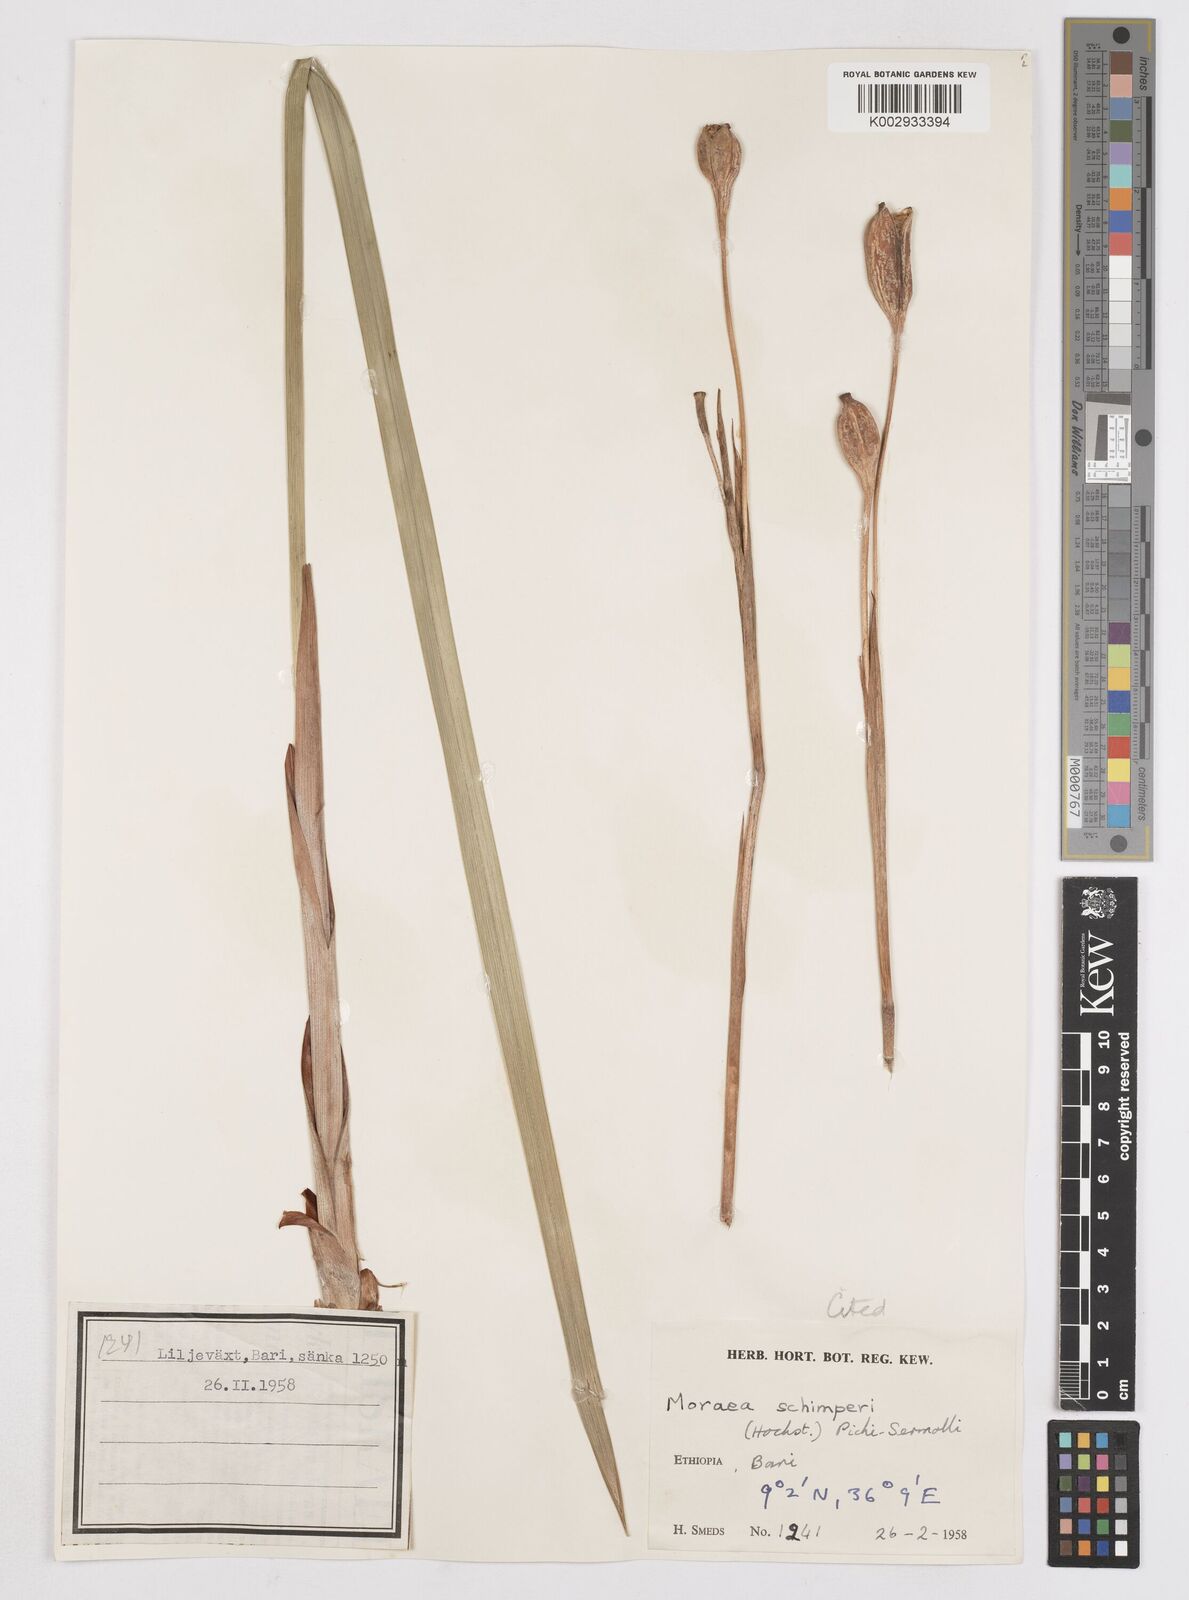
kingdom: Plantae
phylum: Tracheophyta
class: Liliopsida
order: Asparagales
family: Iridaceae
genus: Moraea
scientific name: Moraea schimperi
